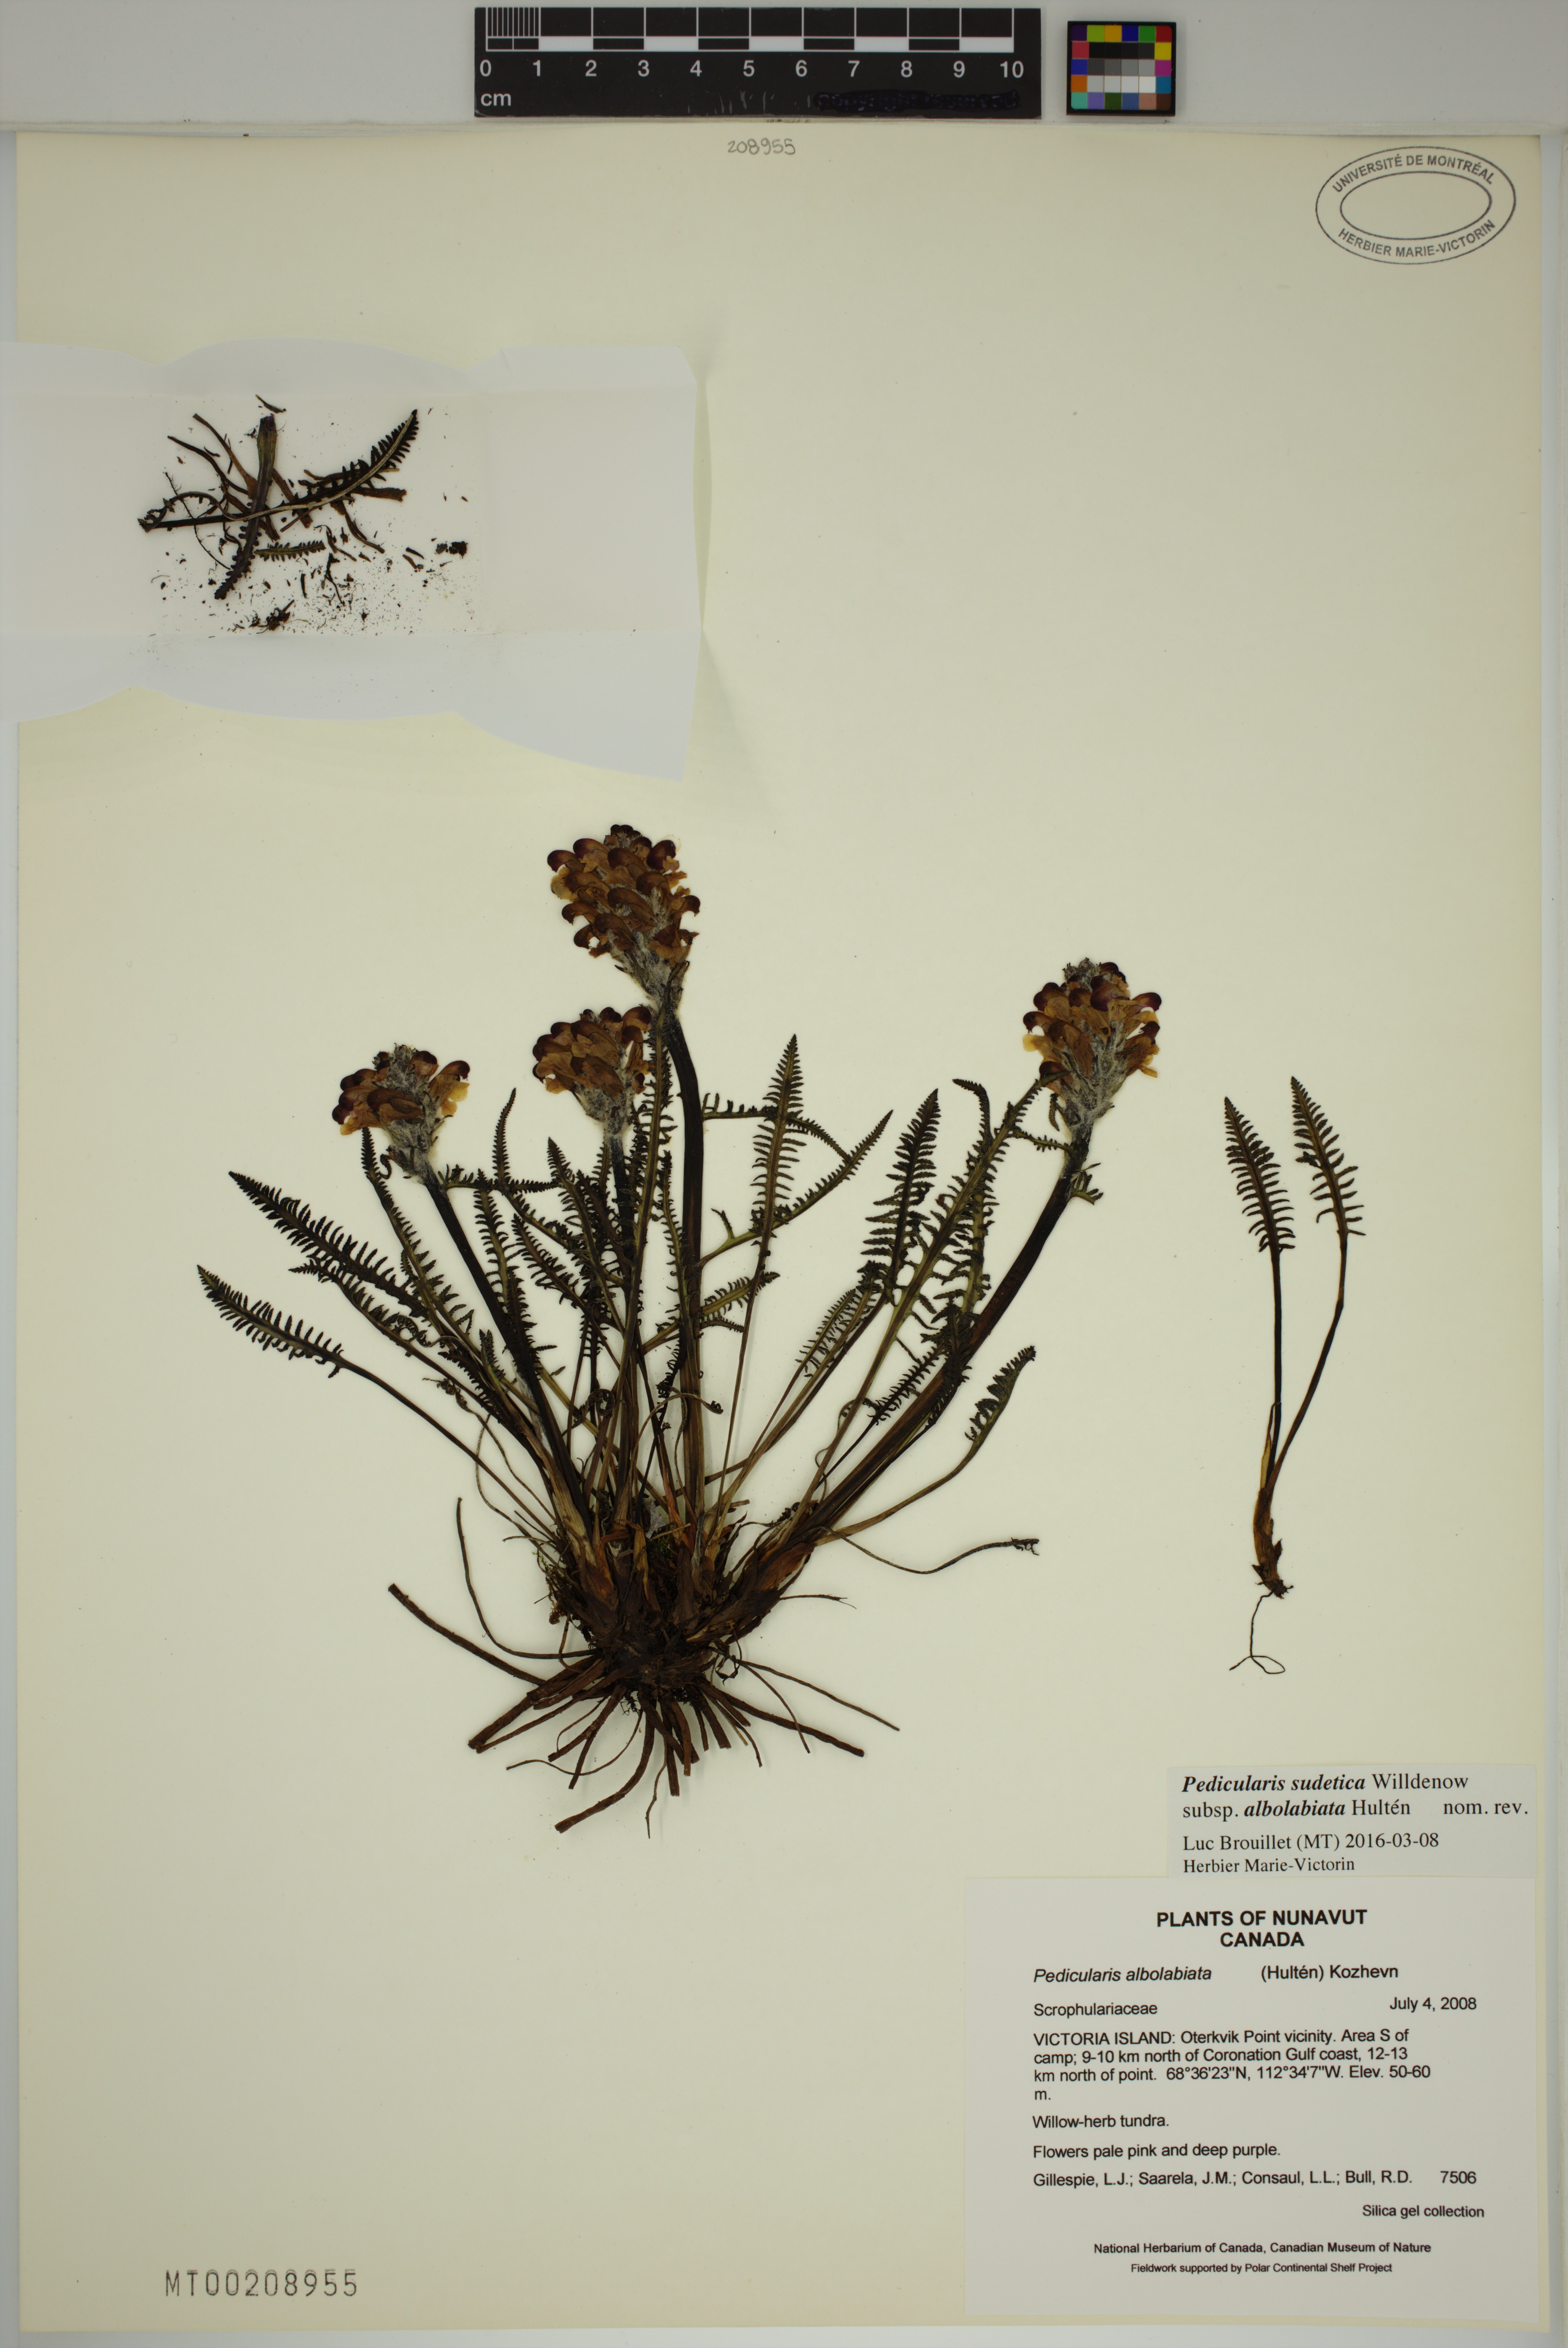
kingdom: Plantae
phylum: Tracheophyta
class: Magnoliopsida
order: Lamiales
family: Orobanchaceae
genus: Pedicularis
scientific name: Pedicularis novaiae-zemliae
